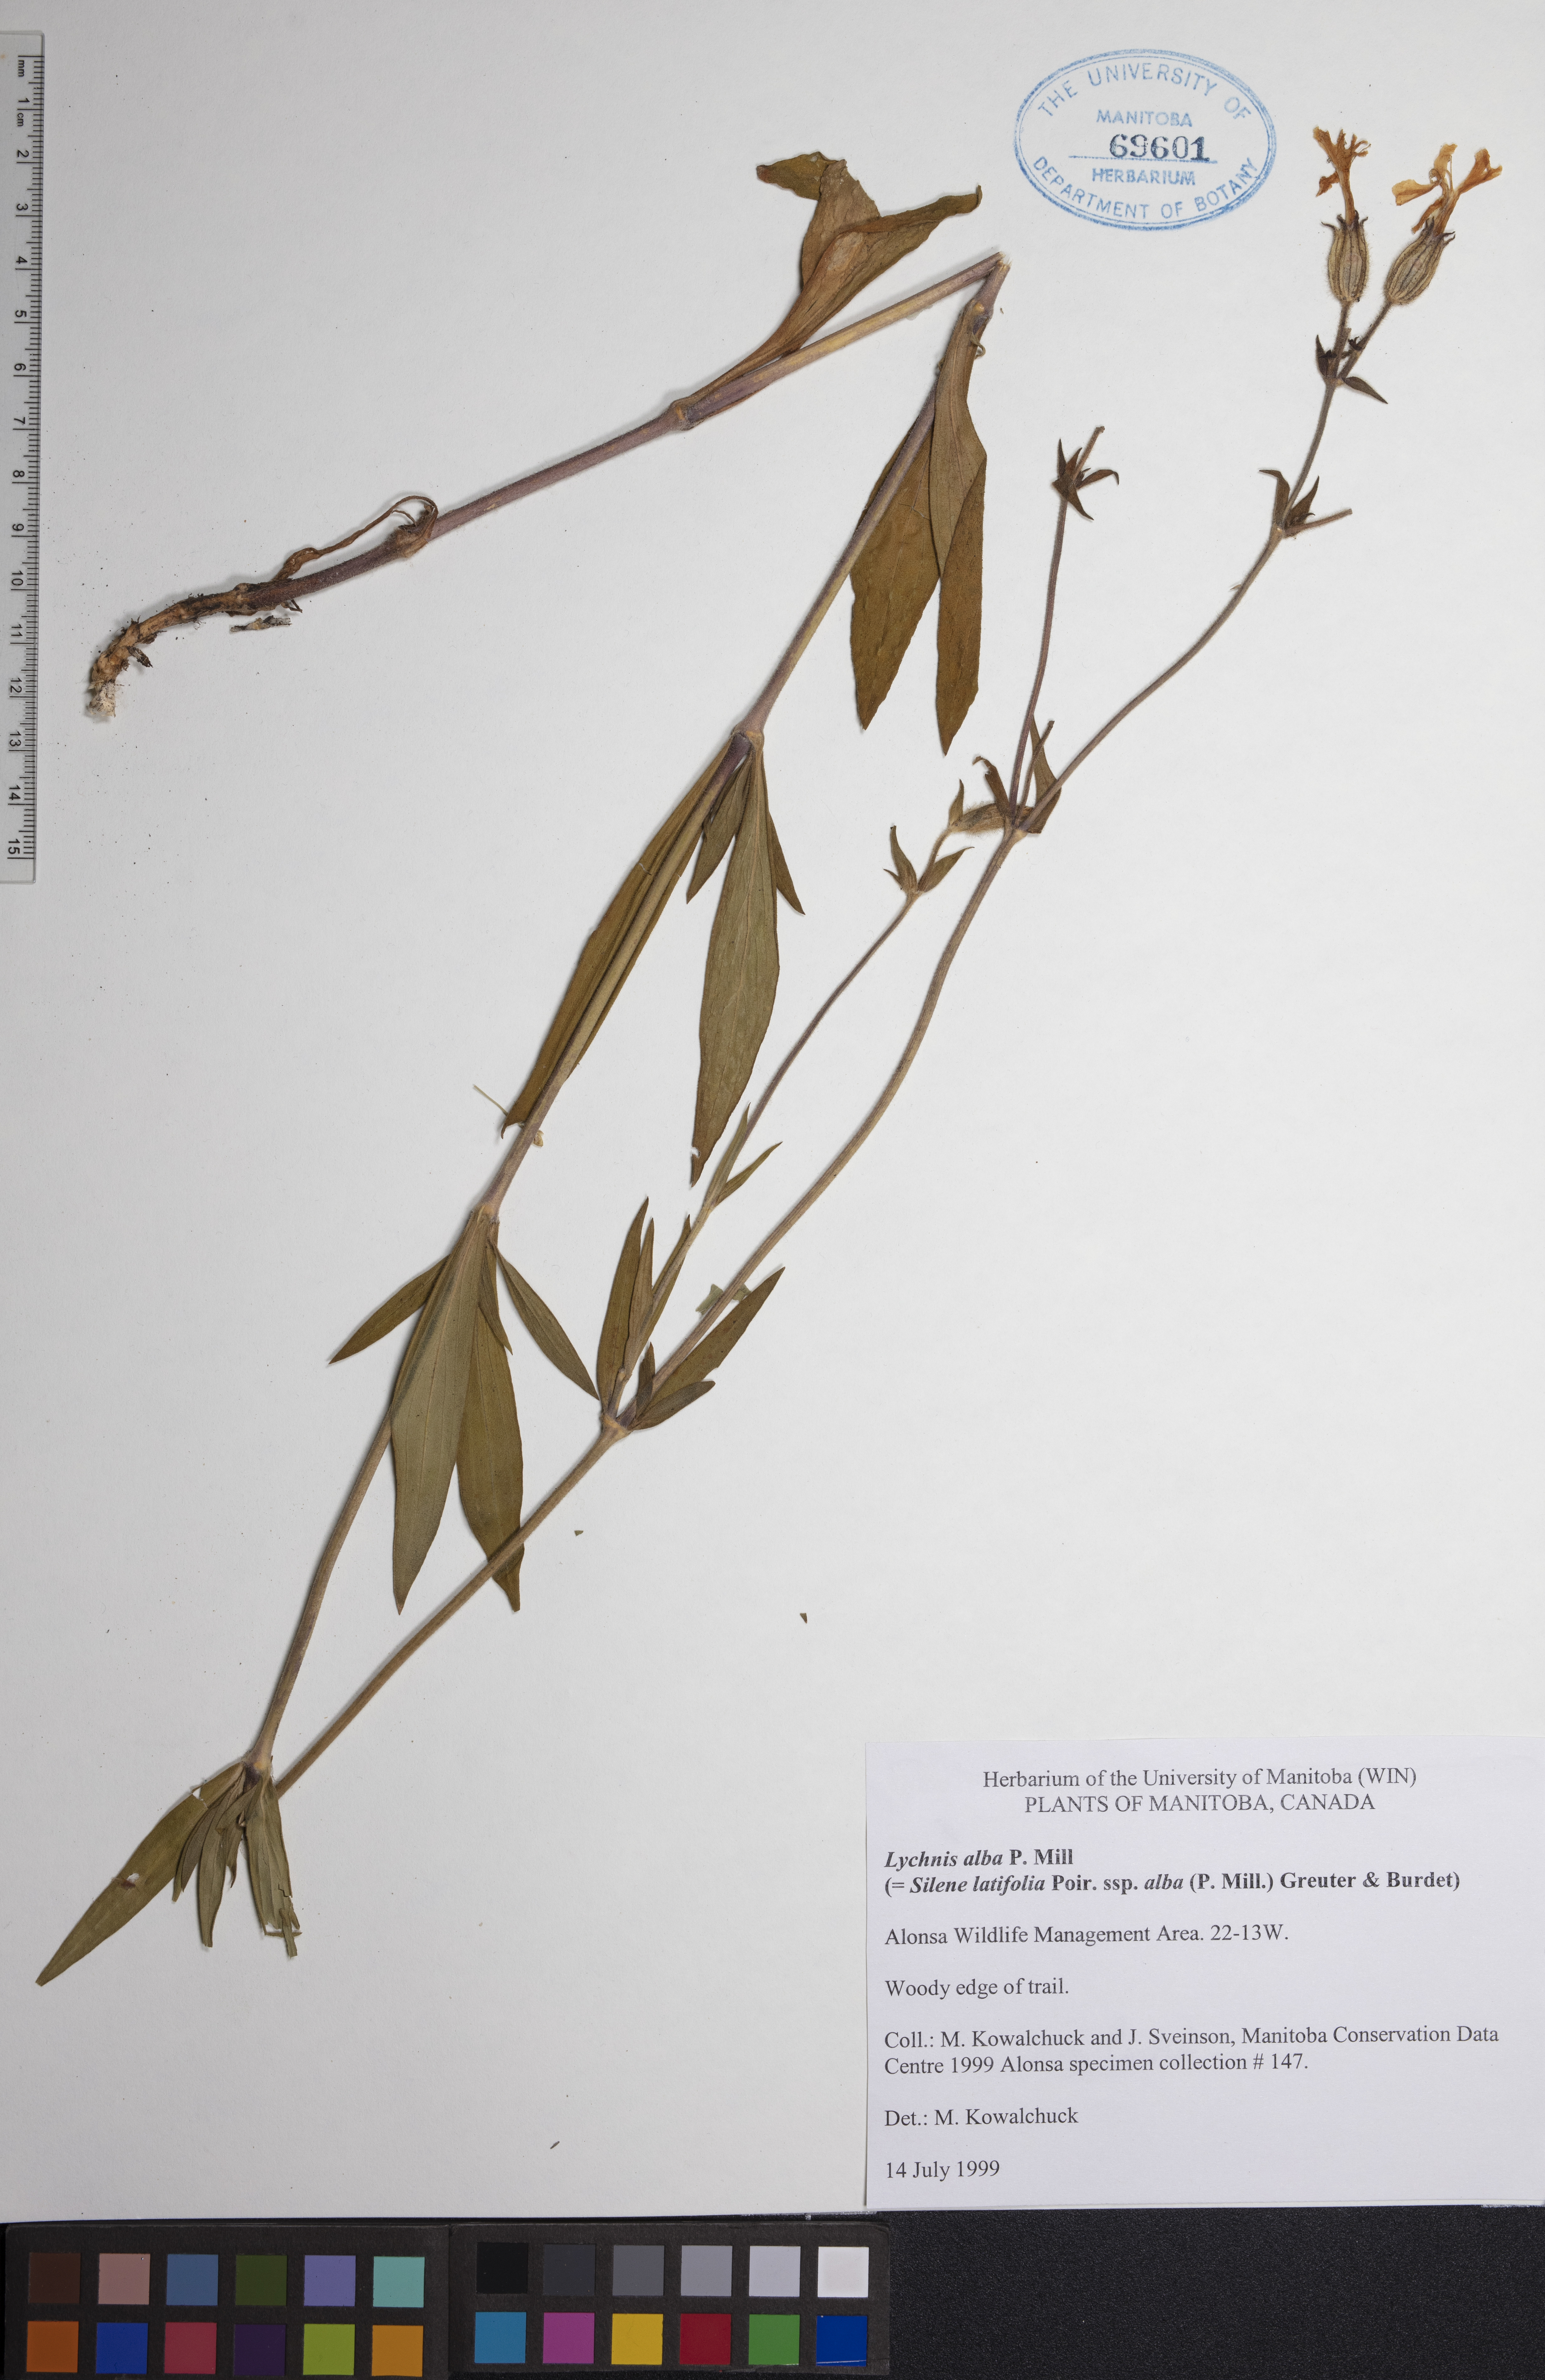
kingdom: Plantae
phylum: Tracheophyta
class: Magnoliopsida
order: Caryophyllales
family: Caryophyllaceae
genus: Silene
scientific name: Silene latifolia
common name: White campion
